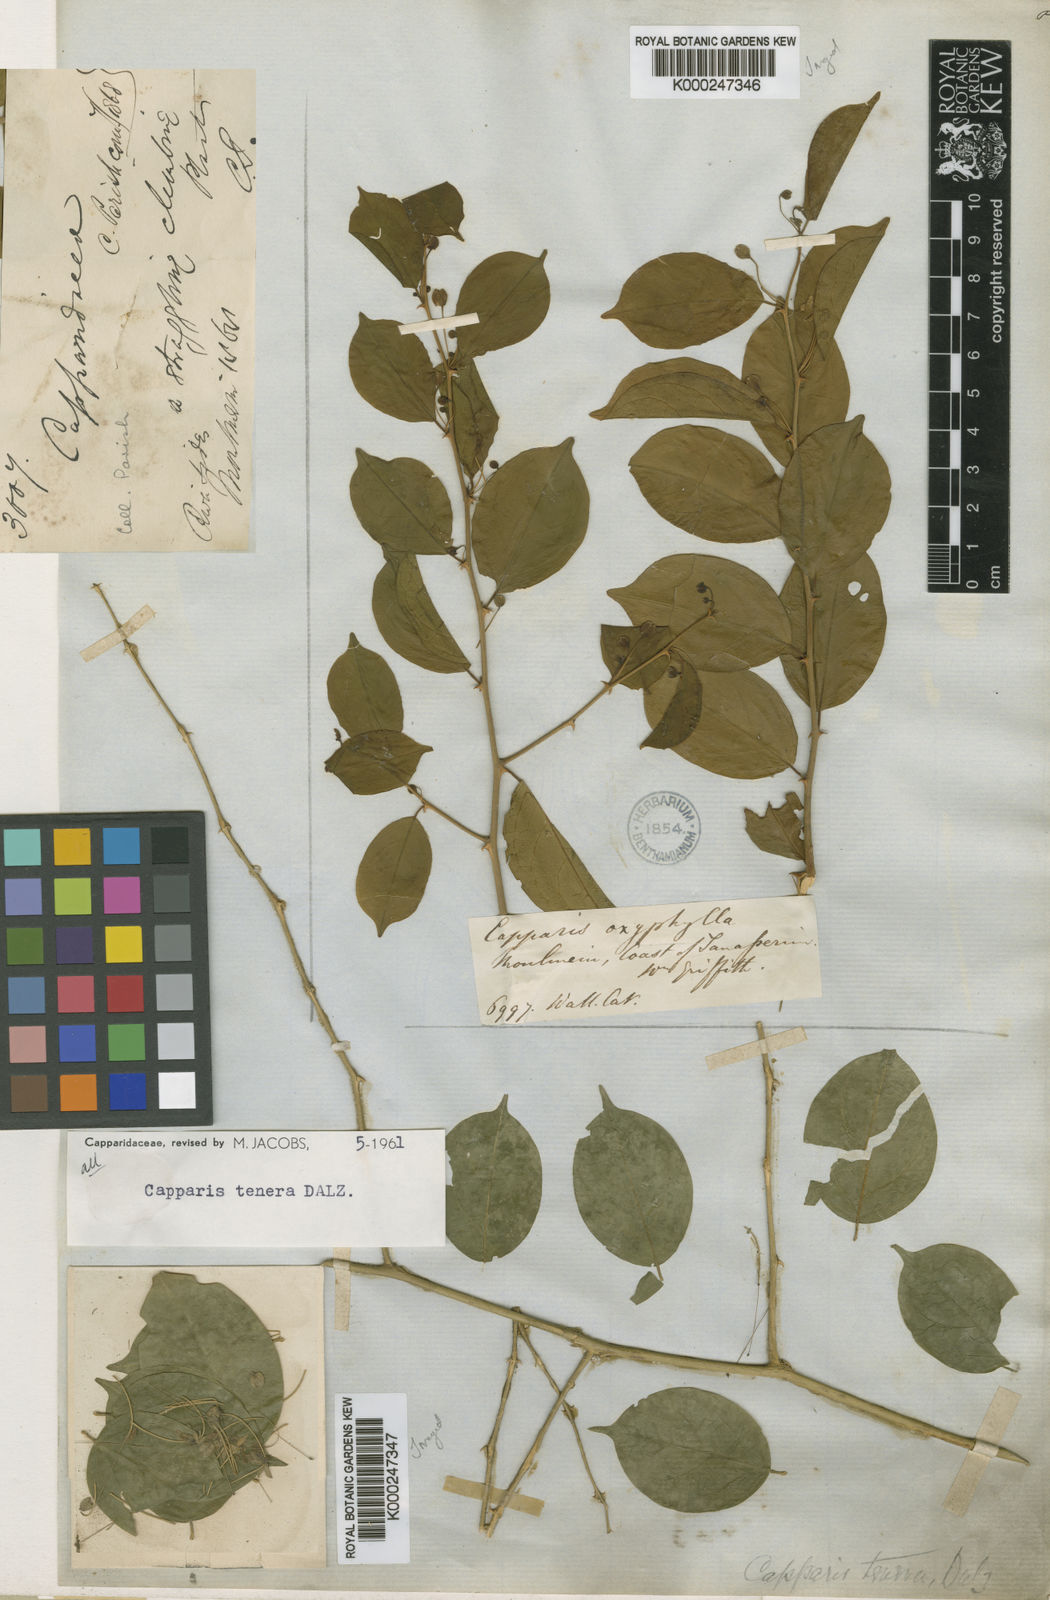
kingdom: Plantae
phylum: Tracheophyta
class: Magnoliopsida
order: Brassicales
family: Capparaceae
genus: Capparis
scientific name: Capparis tenera
